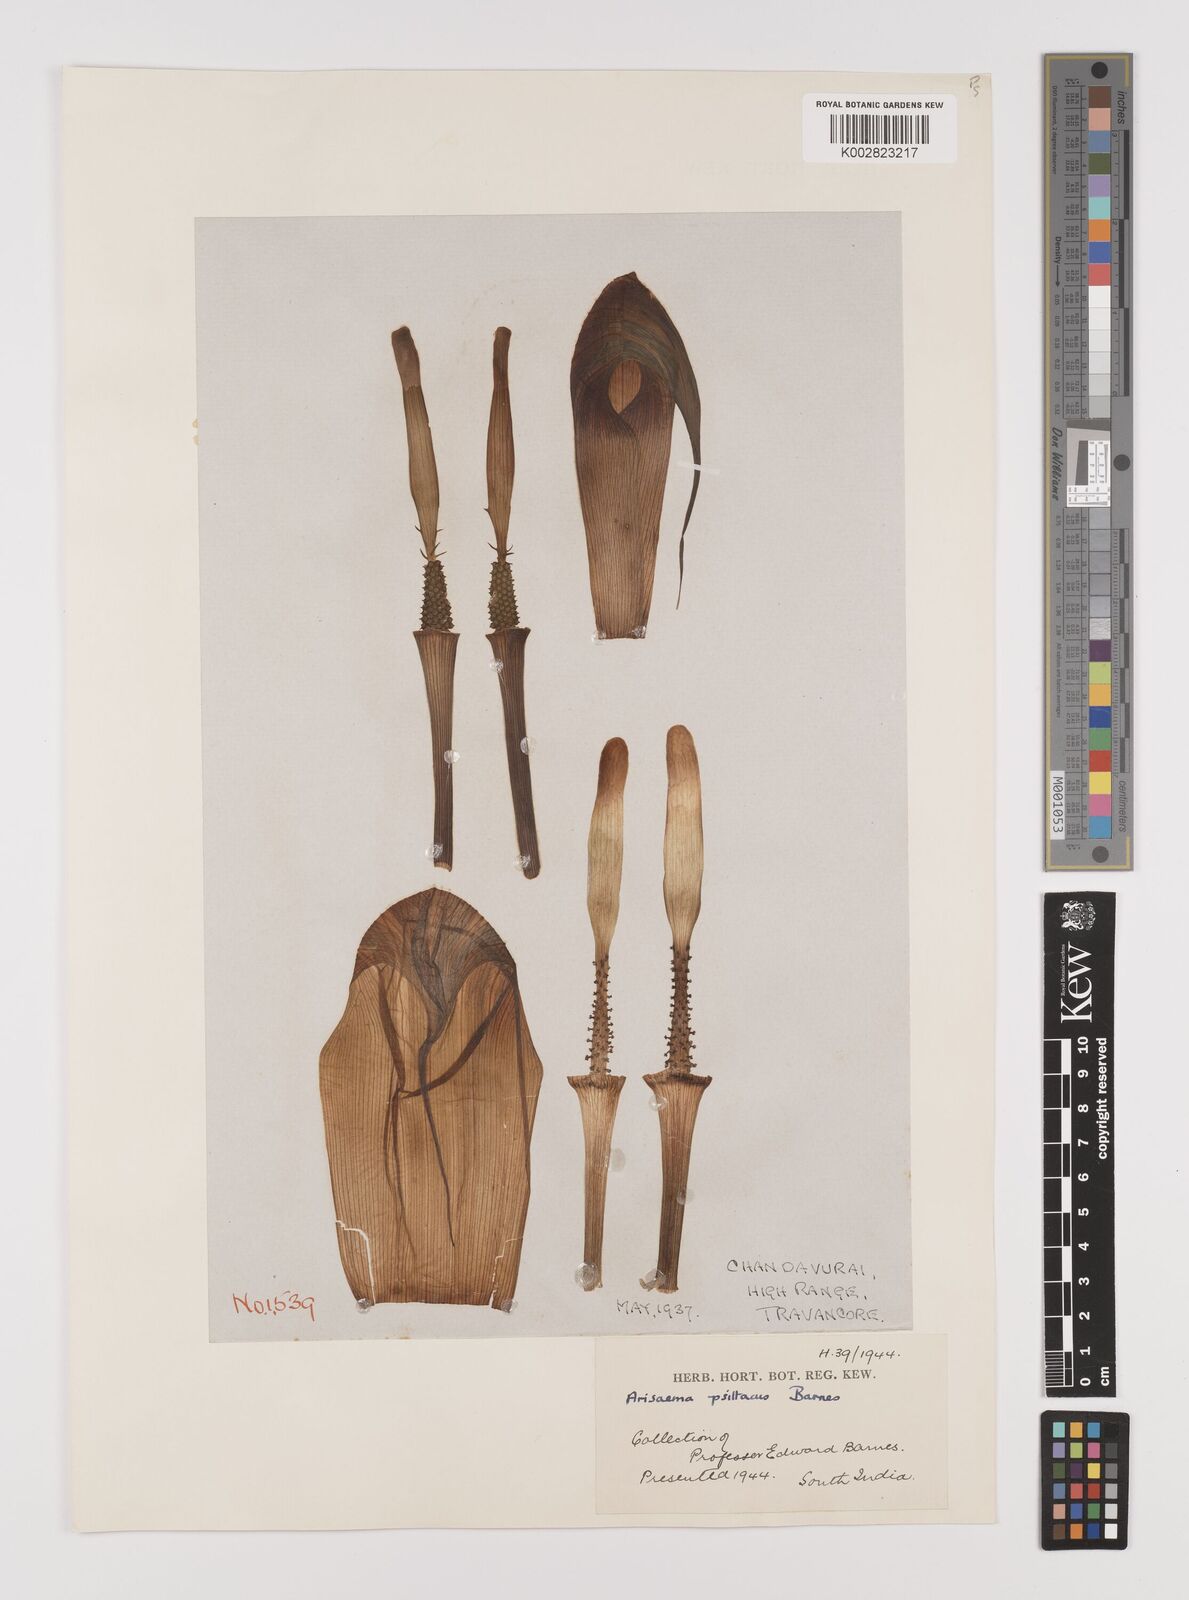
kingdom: Plantae
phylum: Tracheophyta
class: Liliopsida
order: Alismatales
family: Araceae
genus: Arisaema
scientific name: Arisaema psittacus
